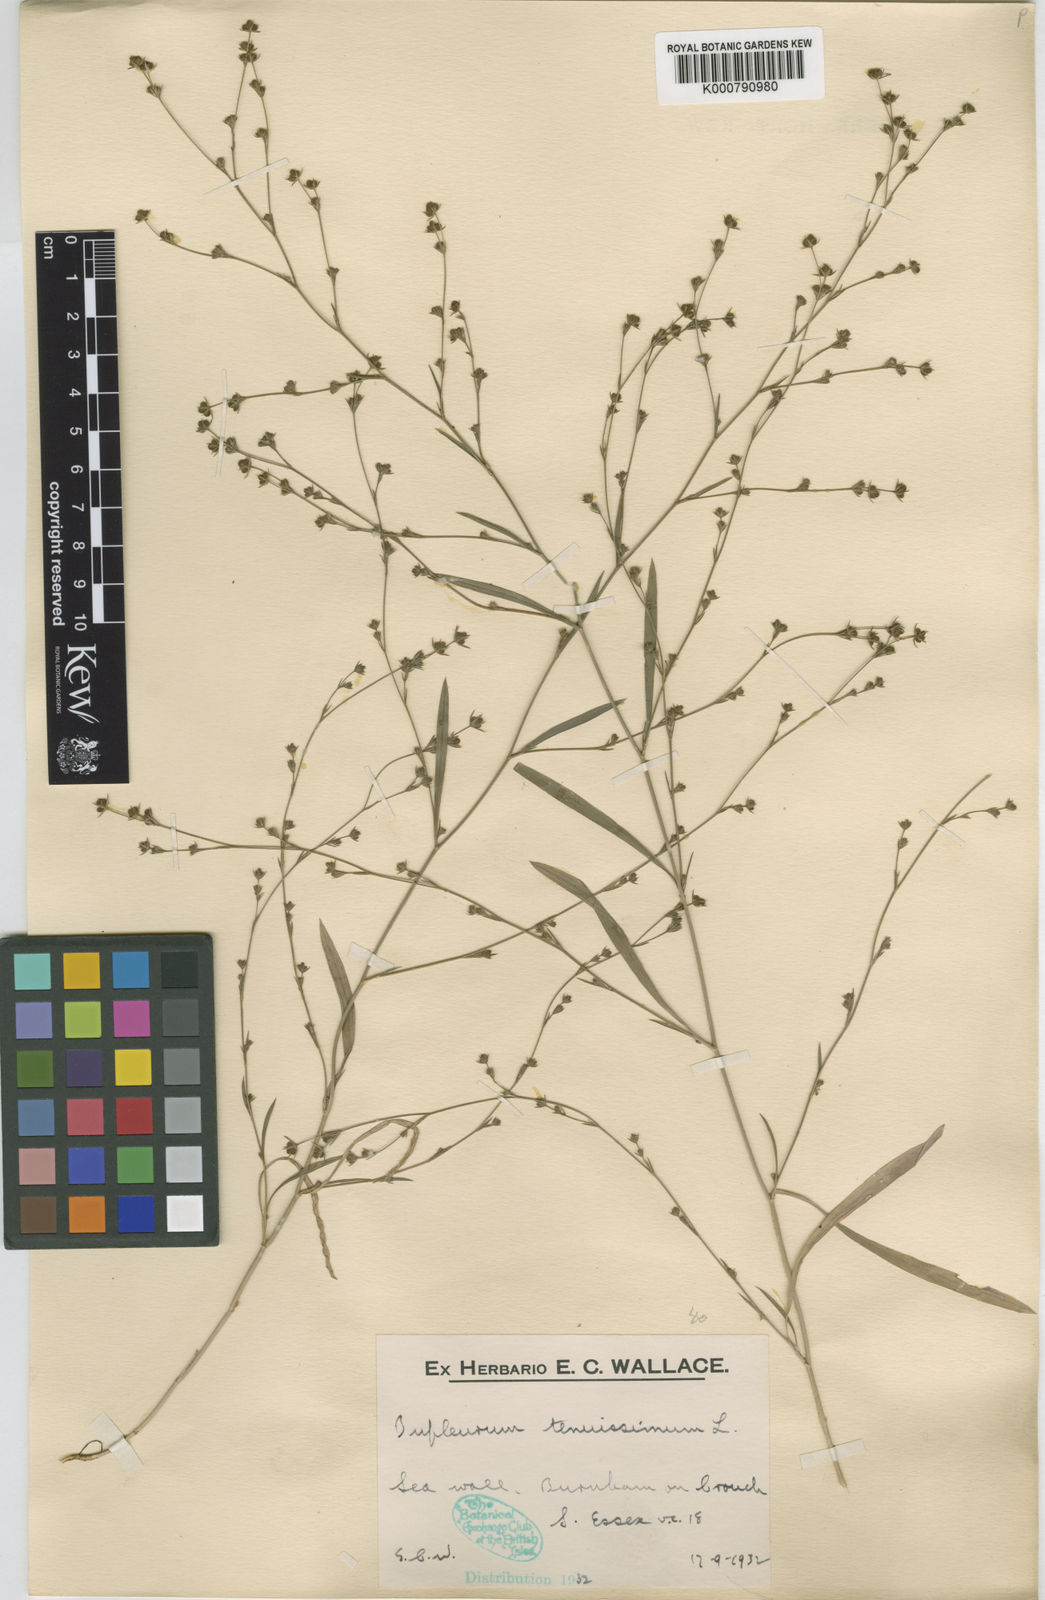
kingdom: Plantae
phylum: Tracheophyta
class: Magnoliopsida
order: Apiales
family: Apiaceae
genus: Bupleurum
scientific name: Bupleurum tenuissimum
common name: Slender hare's-ear
